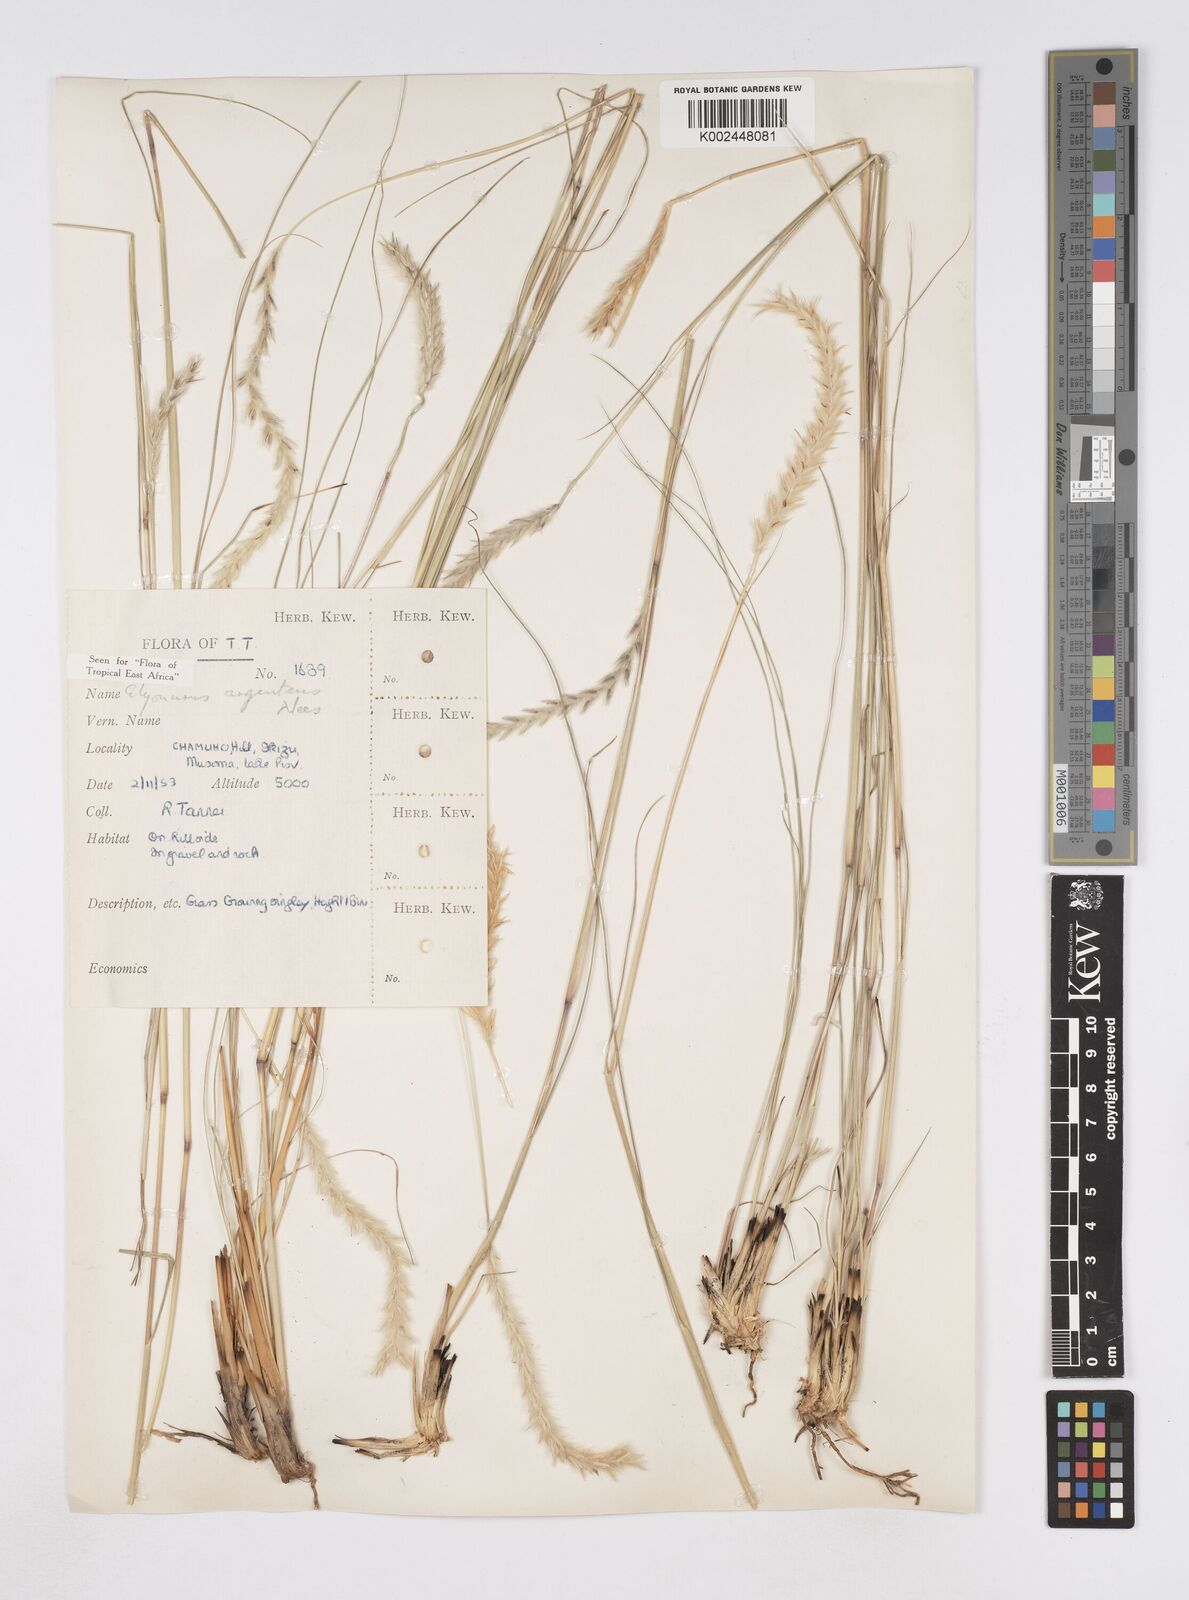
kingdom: Plantae
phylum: Tracheophyta
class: Liliopsida
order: Poales
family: Poaceae
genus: Elionurus
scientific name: Elionurus muticus
